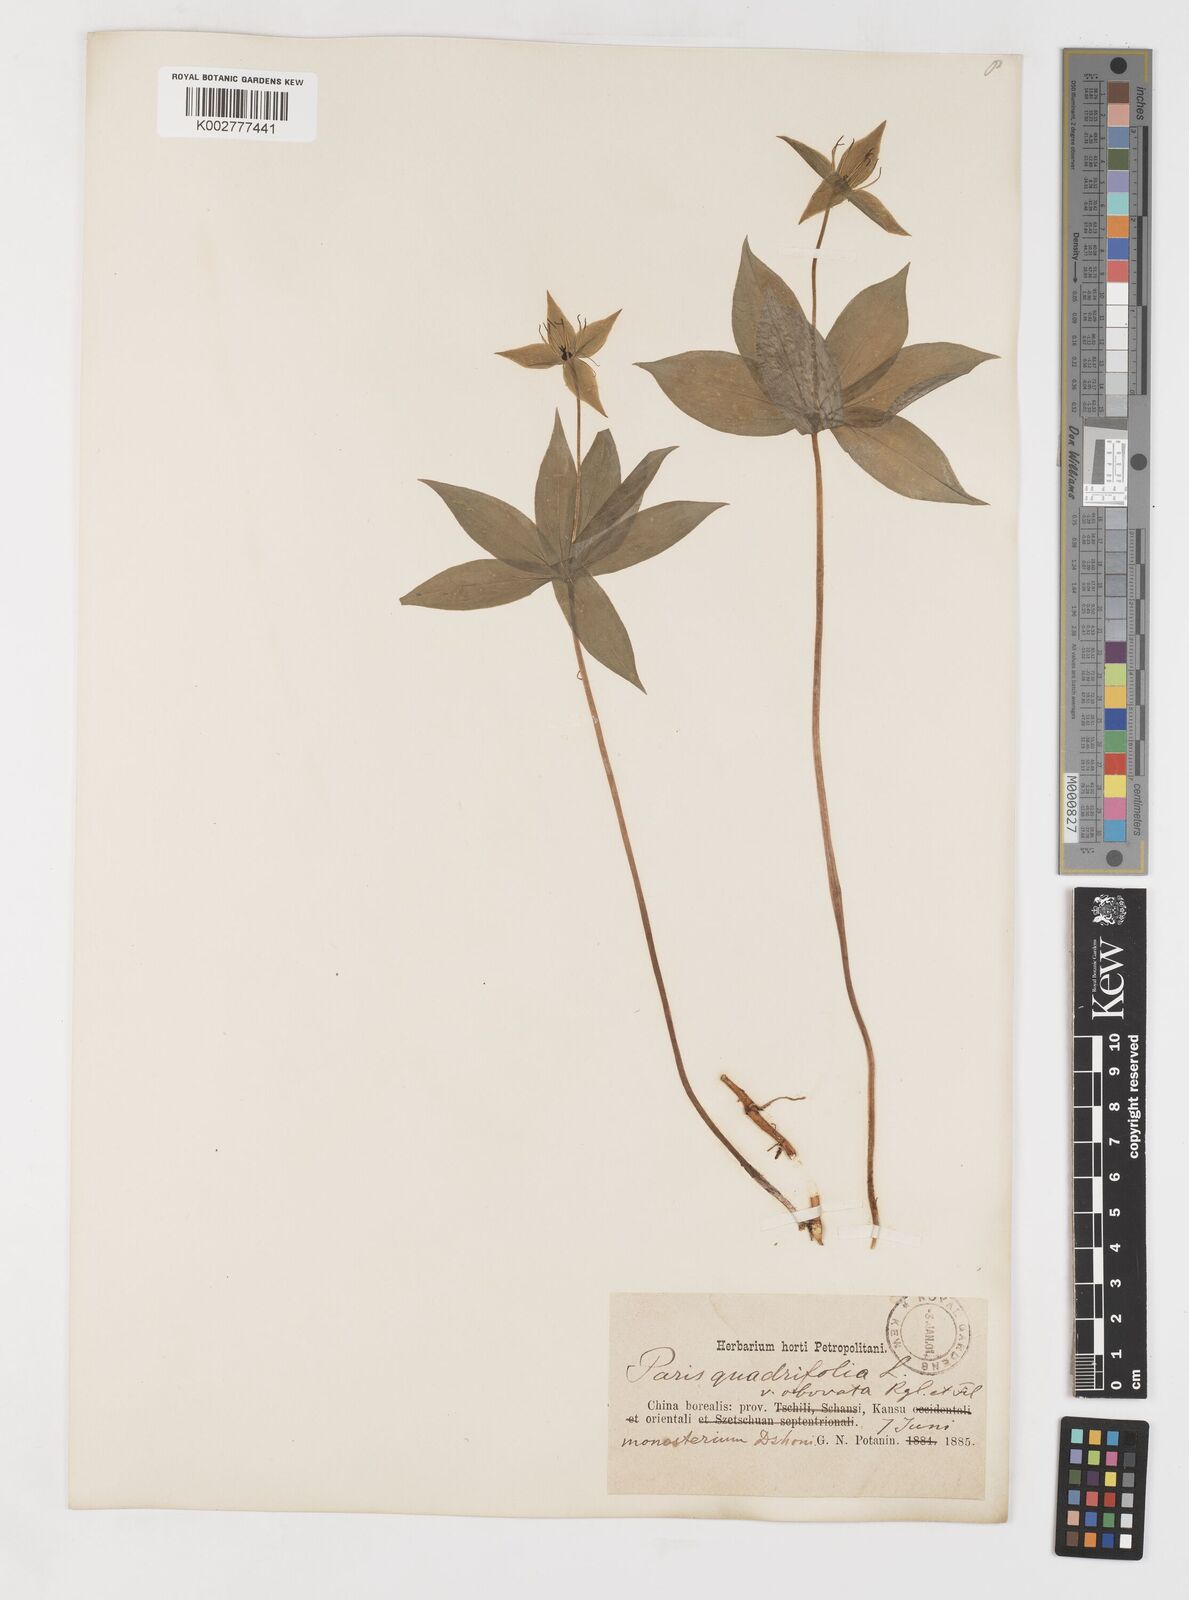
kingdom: Plantae
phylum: Tracheophyta
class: Liliopsida
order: Liliales
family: Melanthiaceae
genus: Paris
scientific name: Paris polyphylla
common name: Love apple
